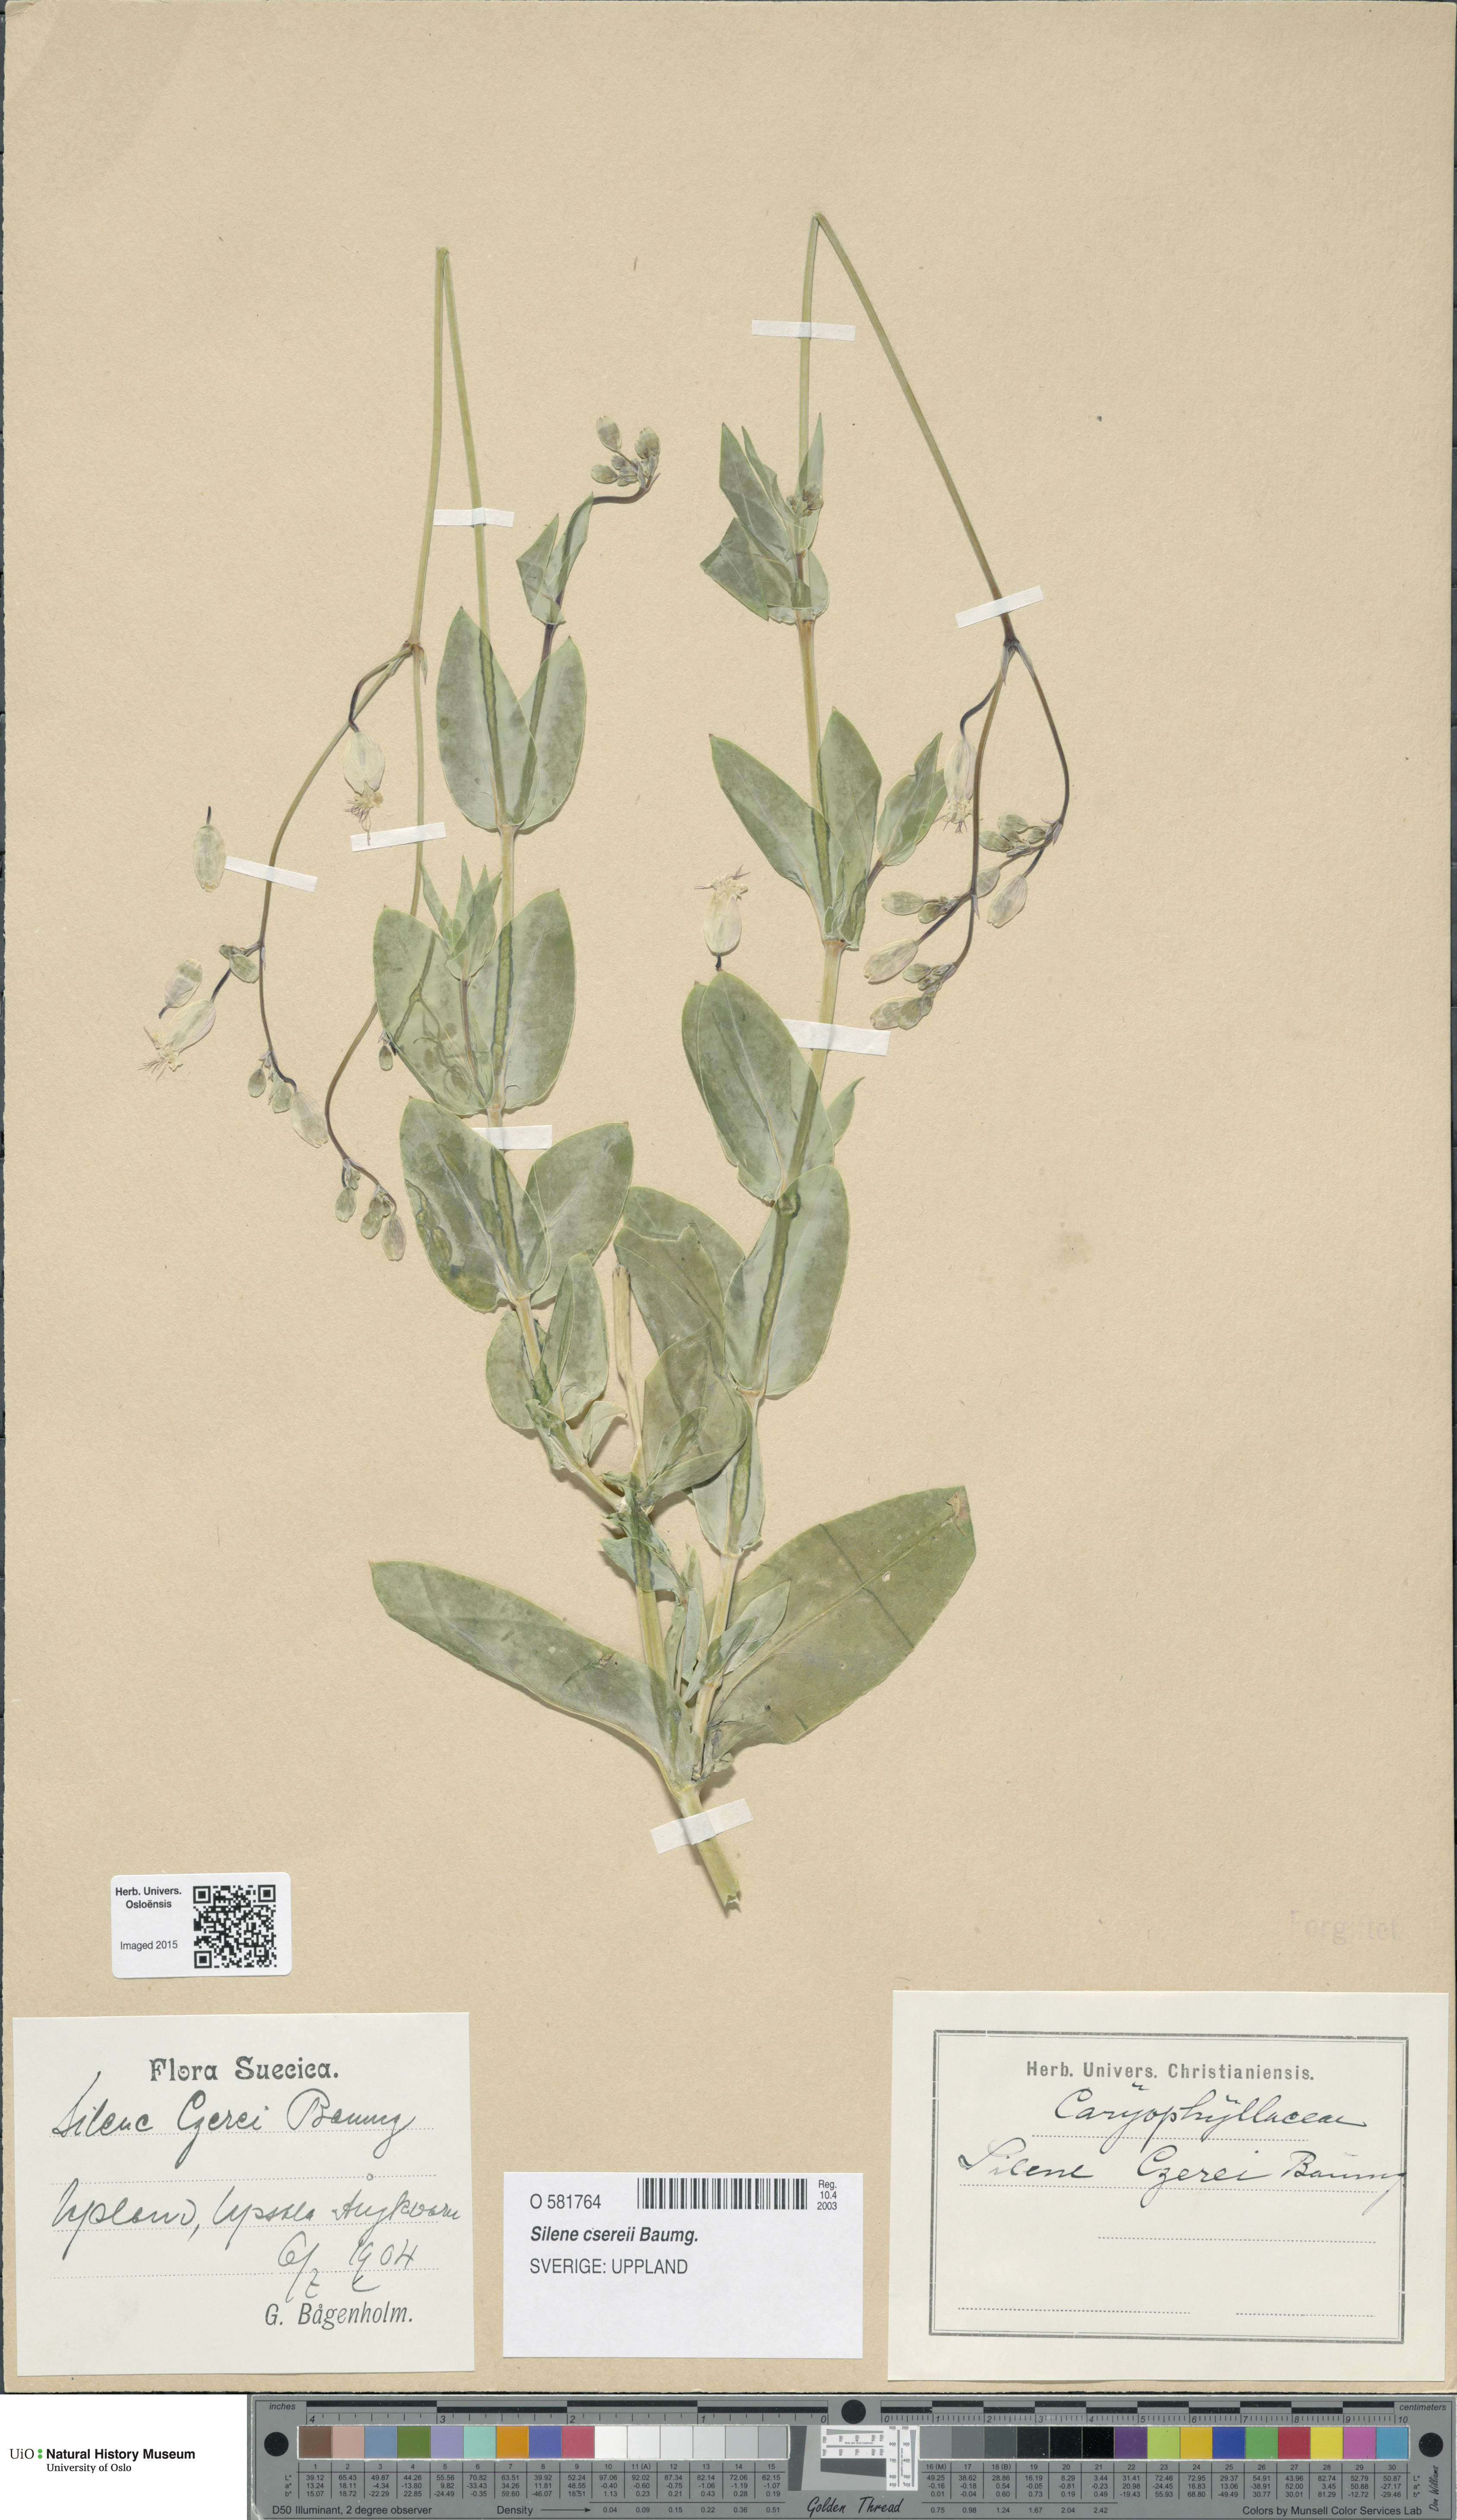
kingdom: Plantae
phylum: Tracheophyta
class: Magnoliopsida
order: Caryophyllales
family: Caryophyllaceae
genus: Silene
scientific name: Silene csereii
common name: Balkan catchfly
